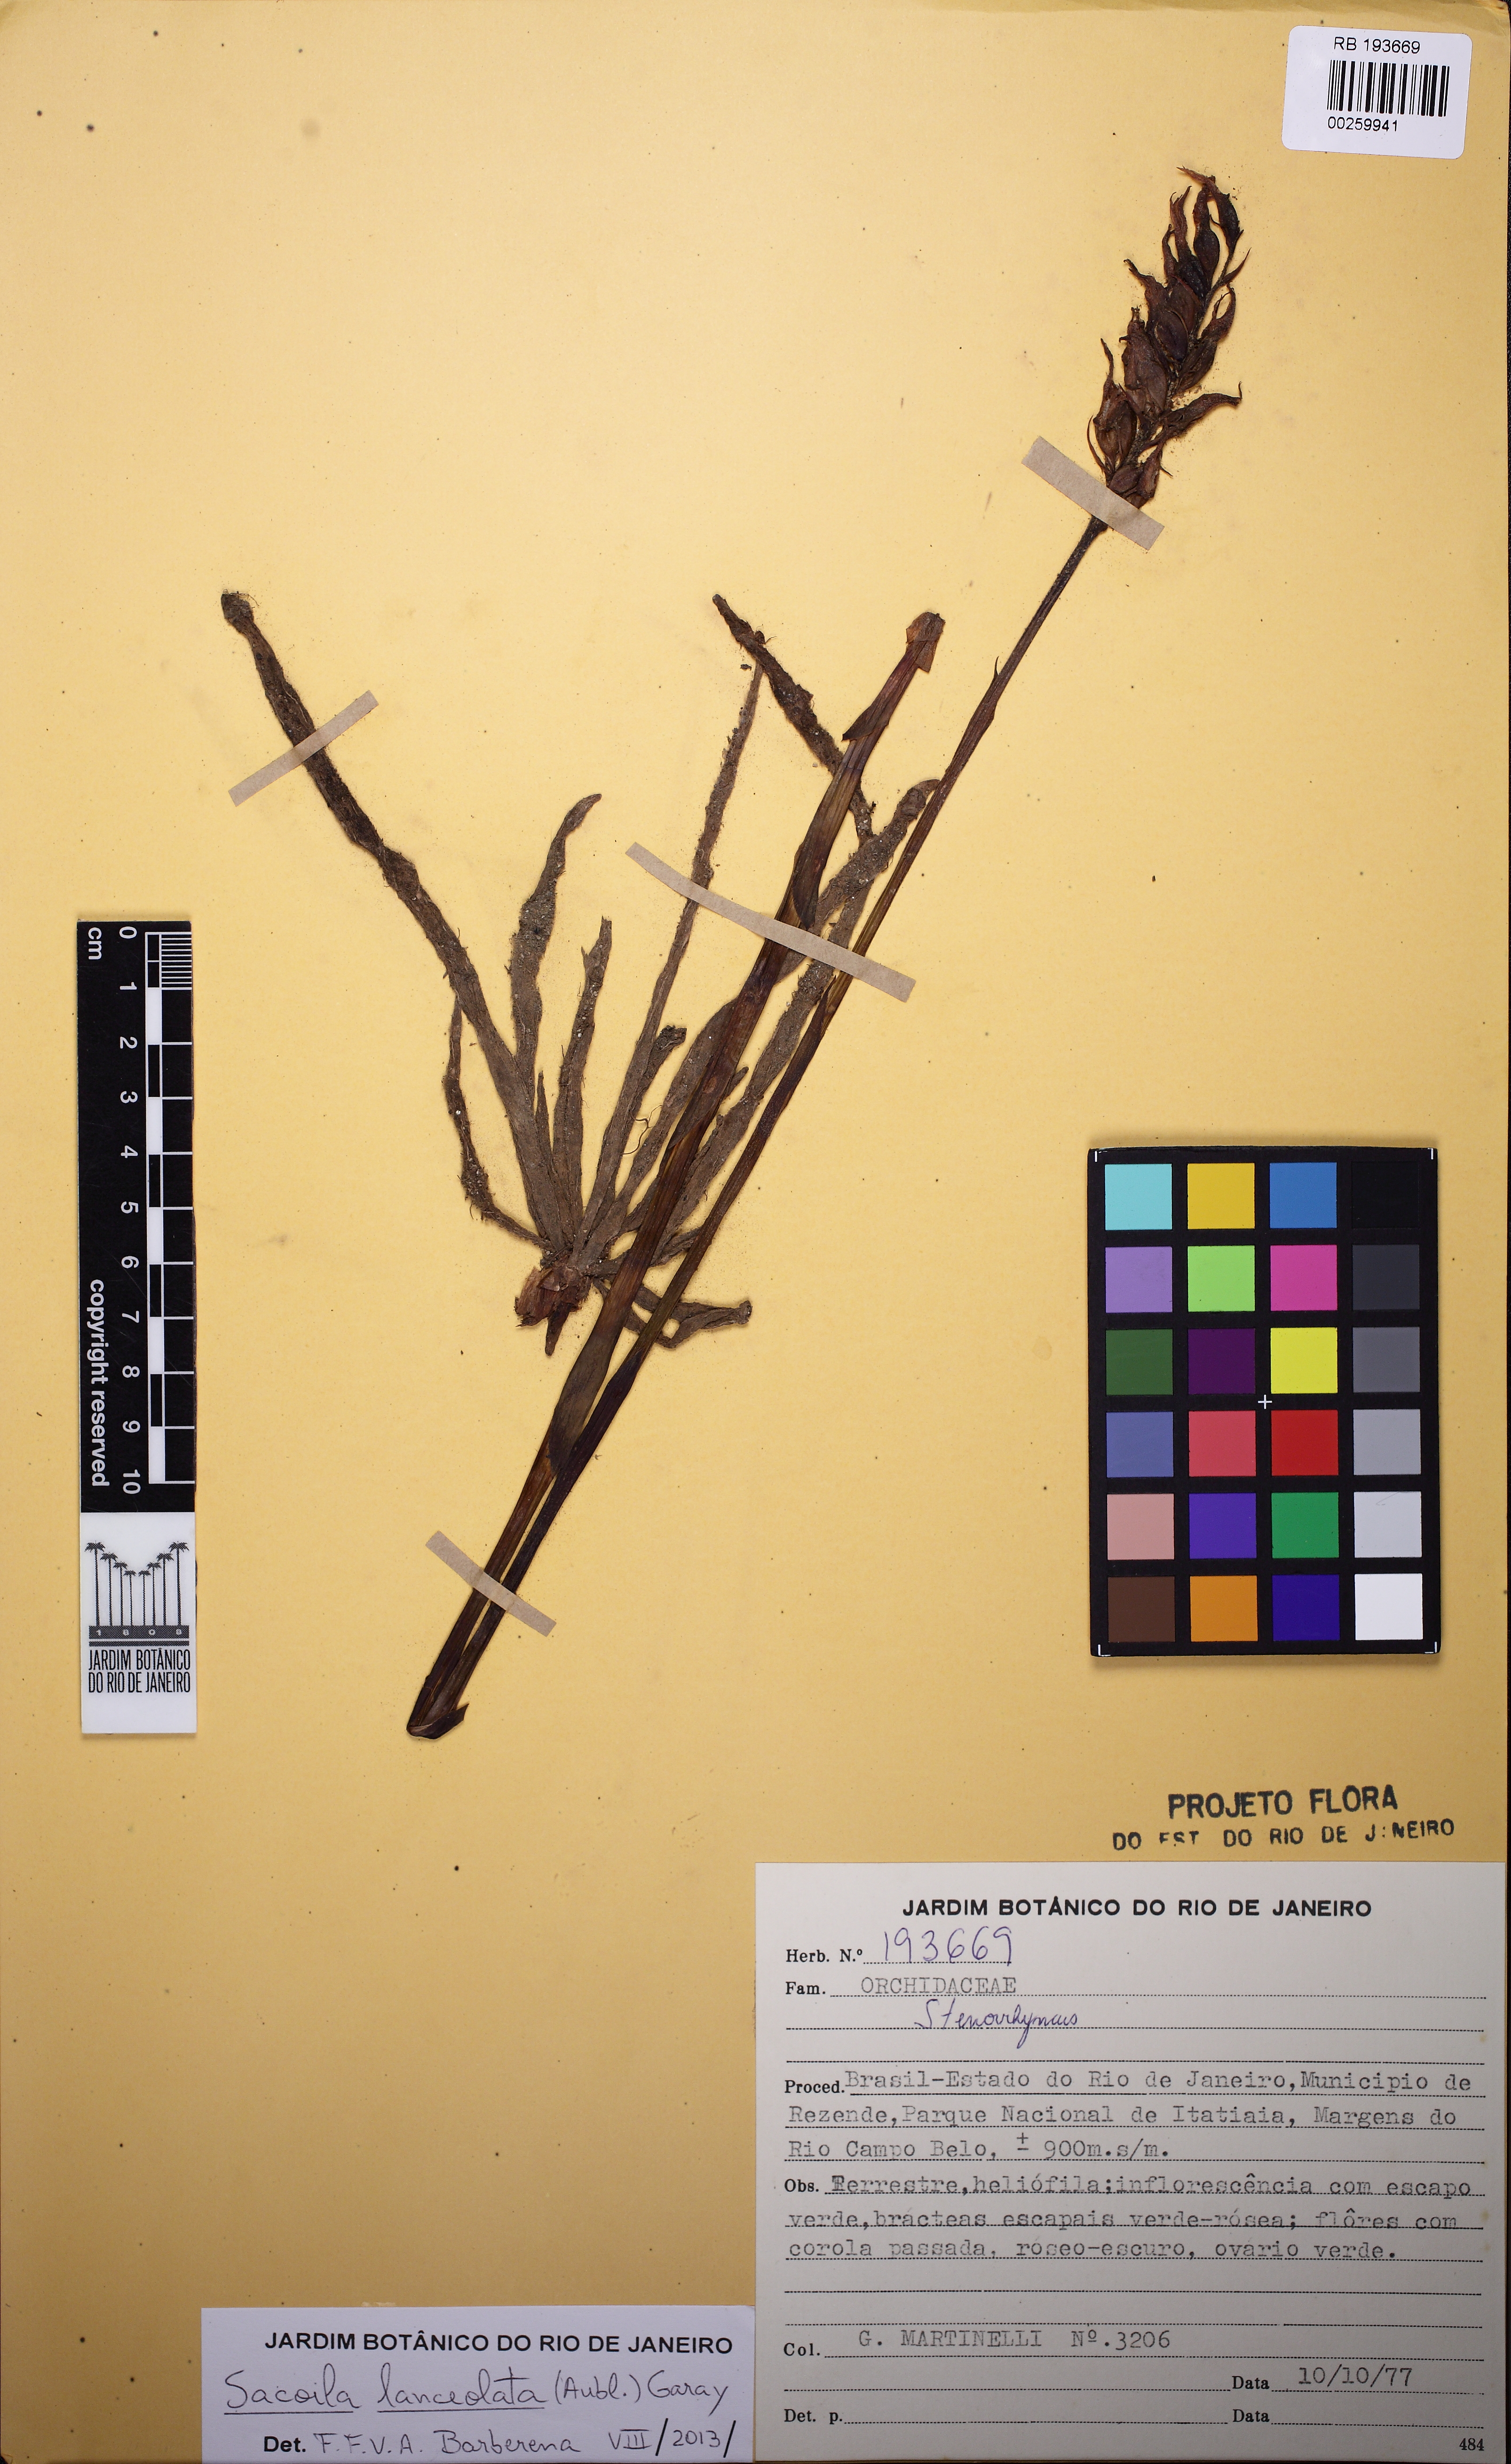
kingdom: Plantae
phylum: Tracheophyta
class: Liliopsida
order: Asparagales
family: Orchidaceae
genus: Sacoila
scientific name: Sacoila lanceolata
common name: Leafless beaked ladiestresses
